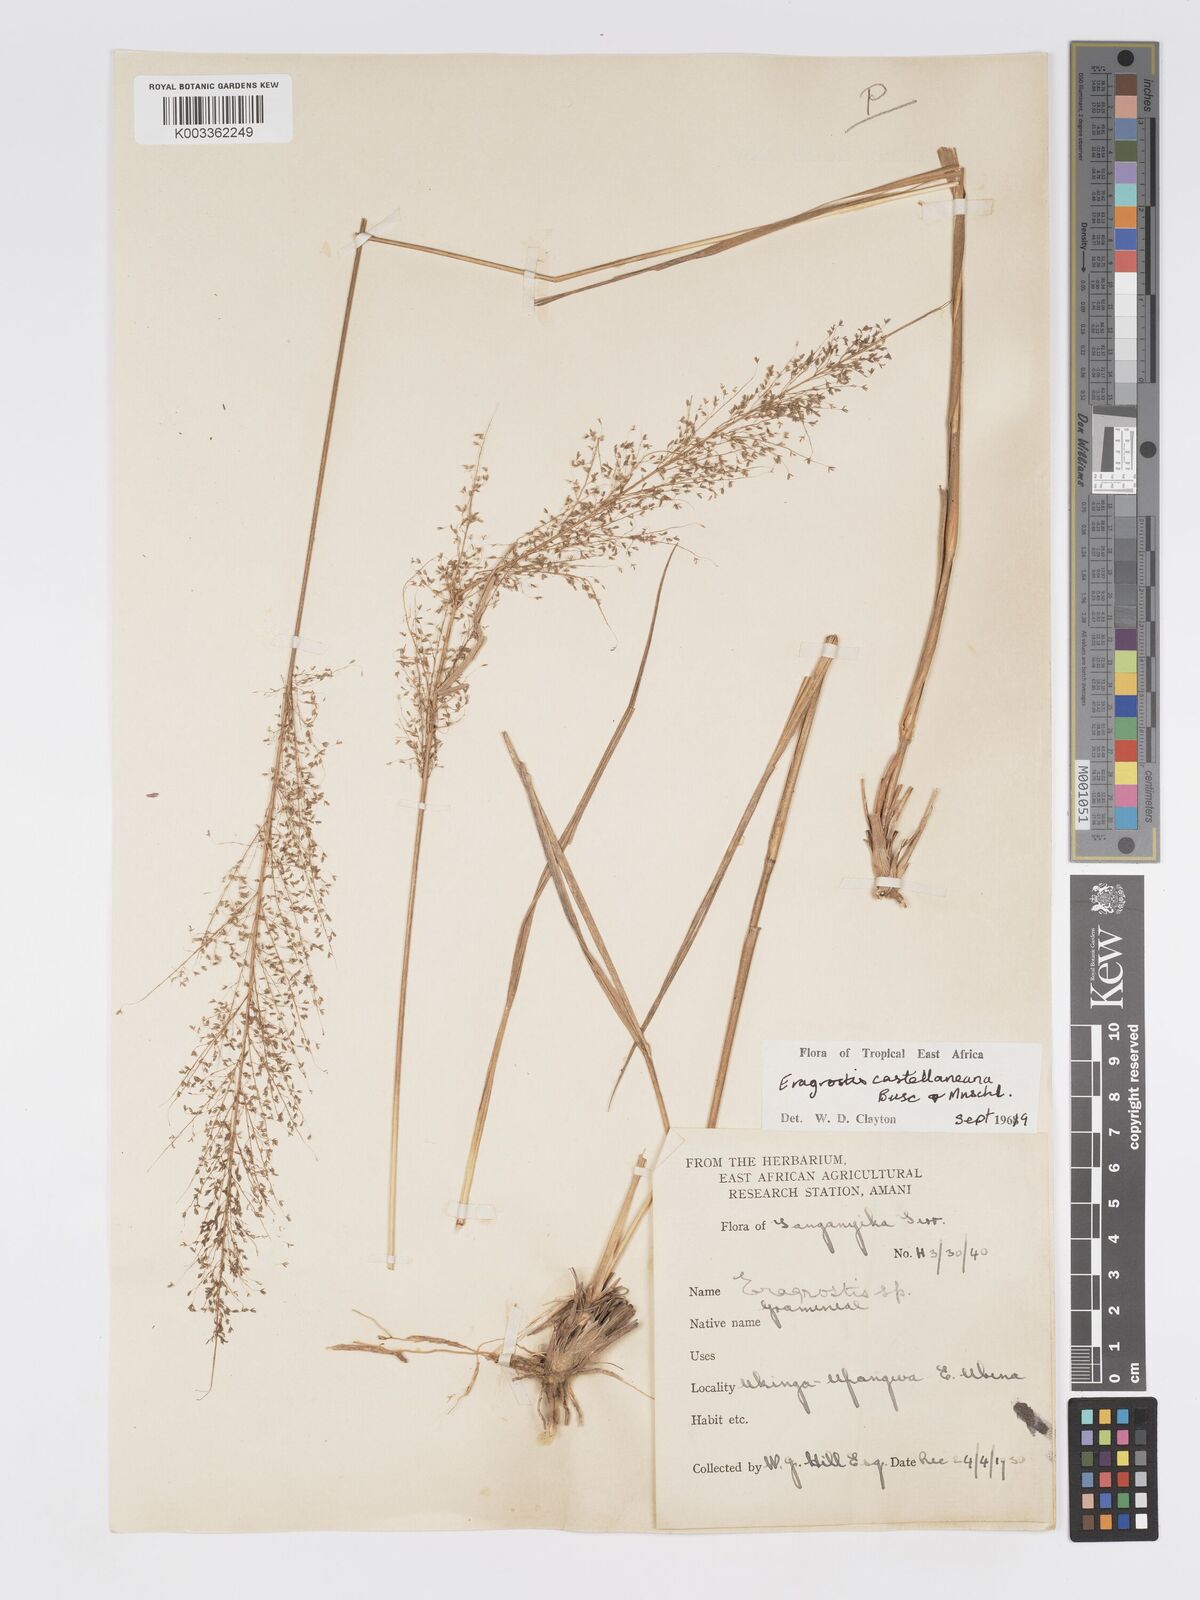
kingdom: Plantae
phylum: Tracheophyta
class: Liliopsida
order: Poales
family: Poaceae
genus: Eragrostis
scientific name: Eragrostis castellaneana
